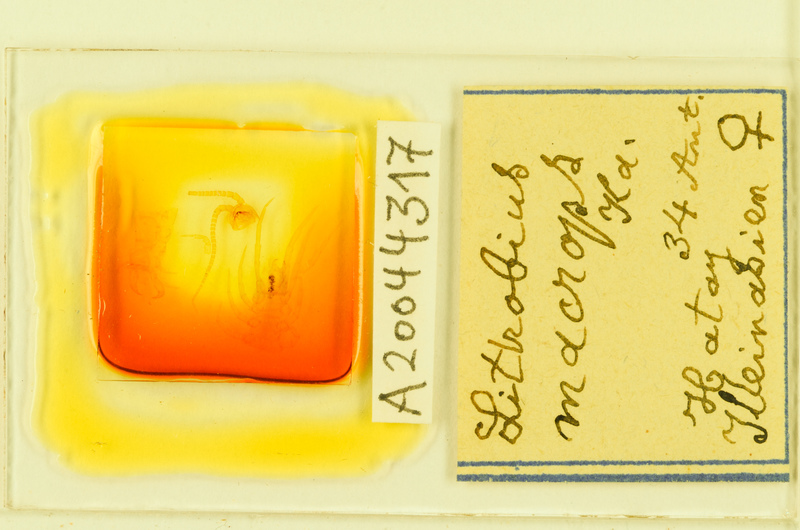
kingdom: Animalia
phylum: Arthropoda
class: Chilopoda
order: Lithobiomorpha
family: Lithobiidae
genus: Lithobius
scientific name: Lithobius carinatus
